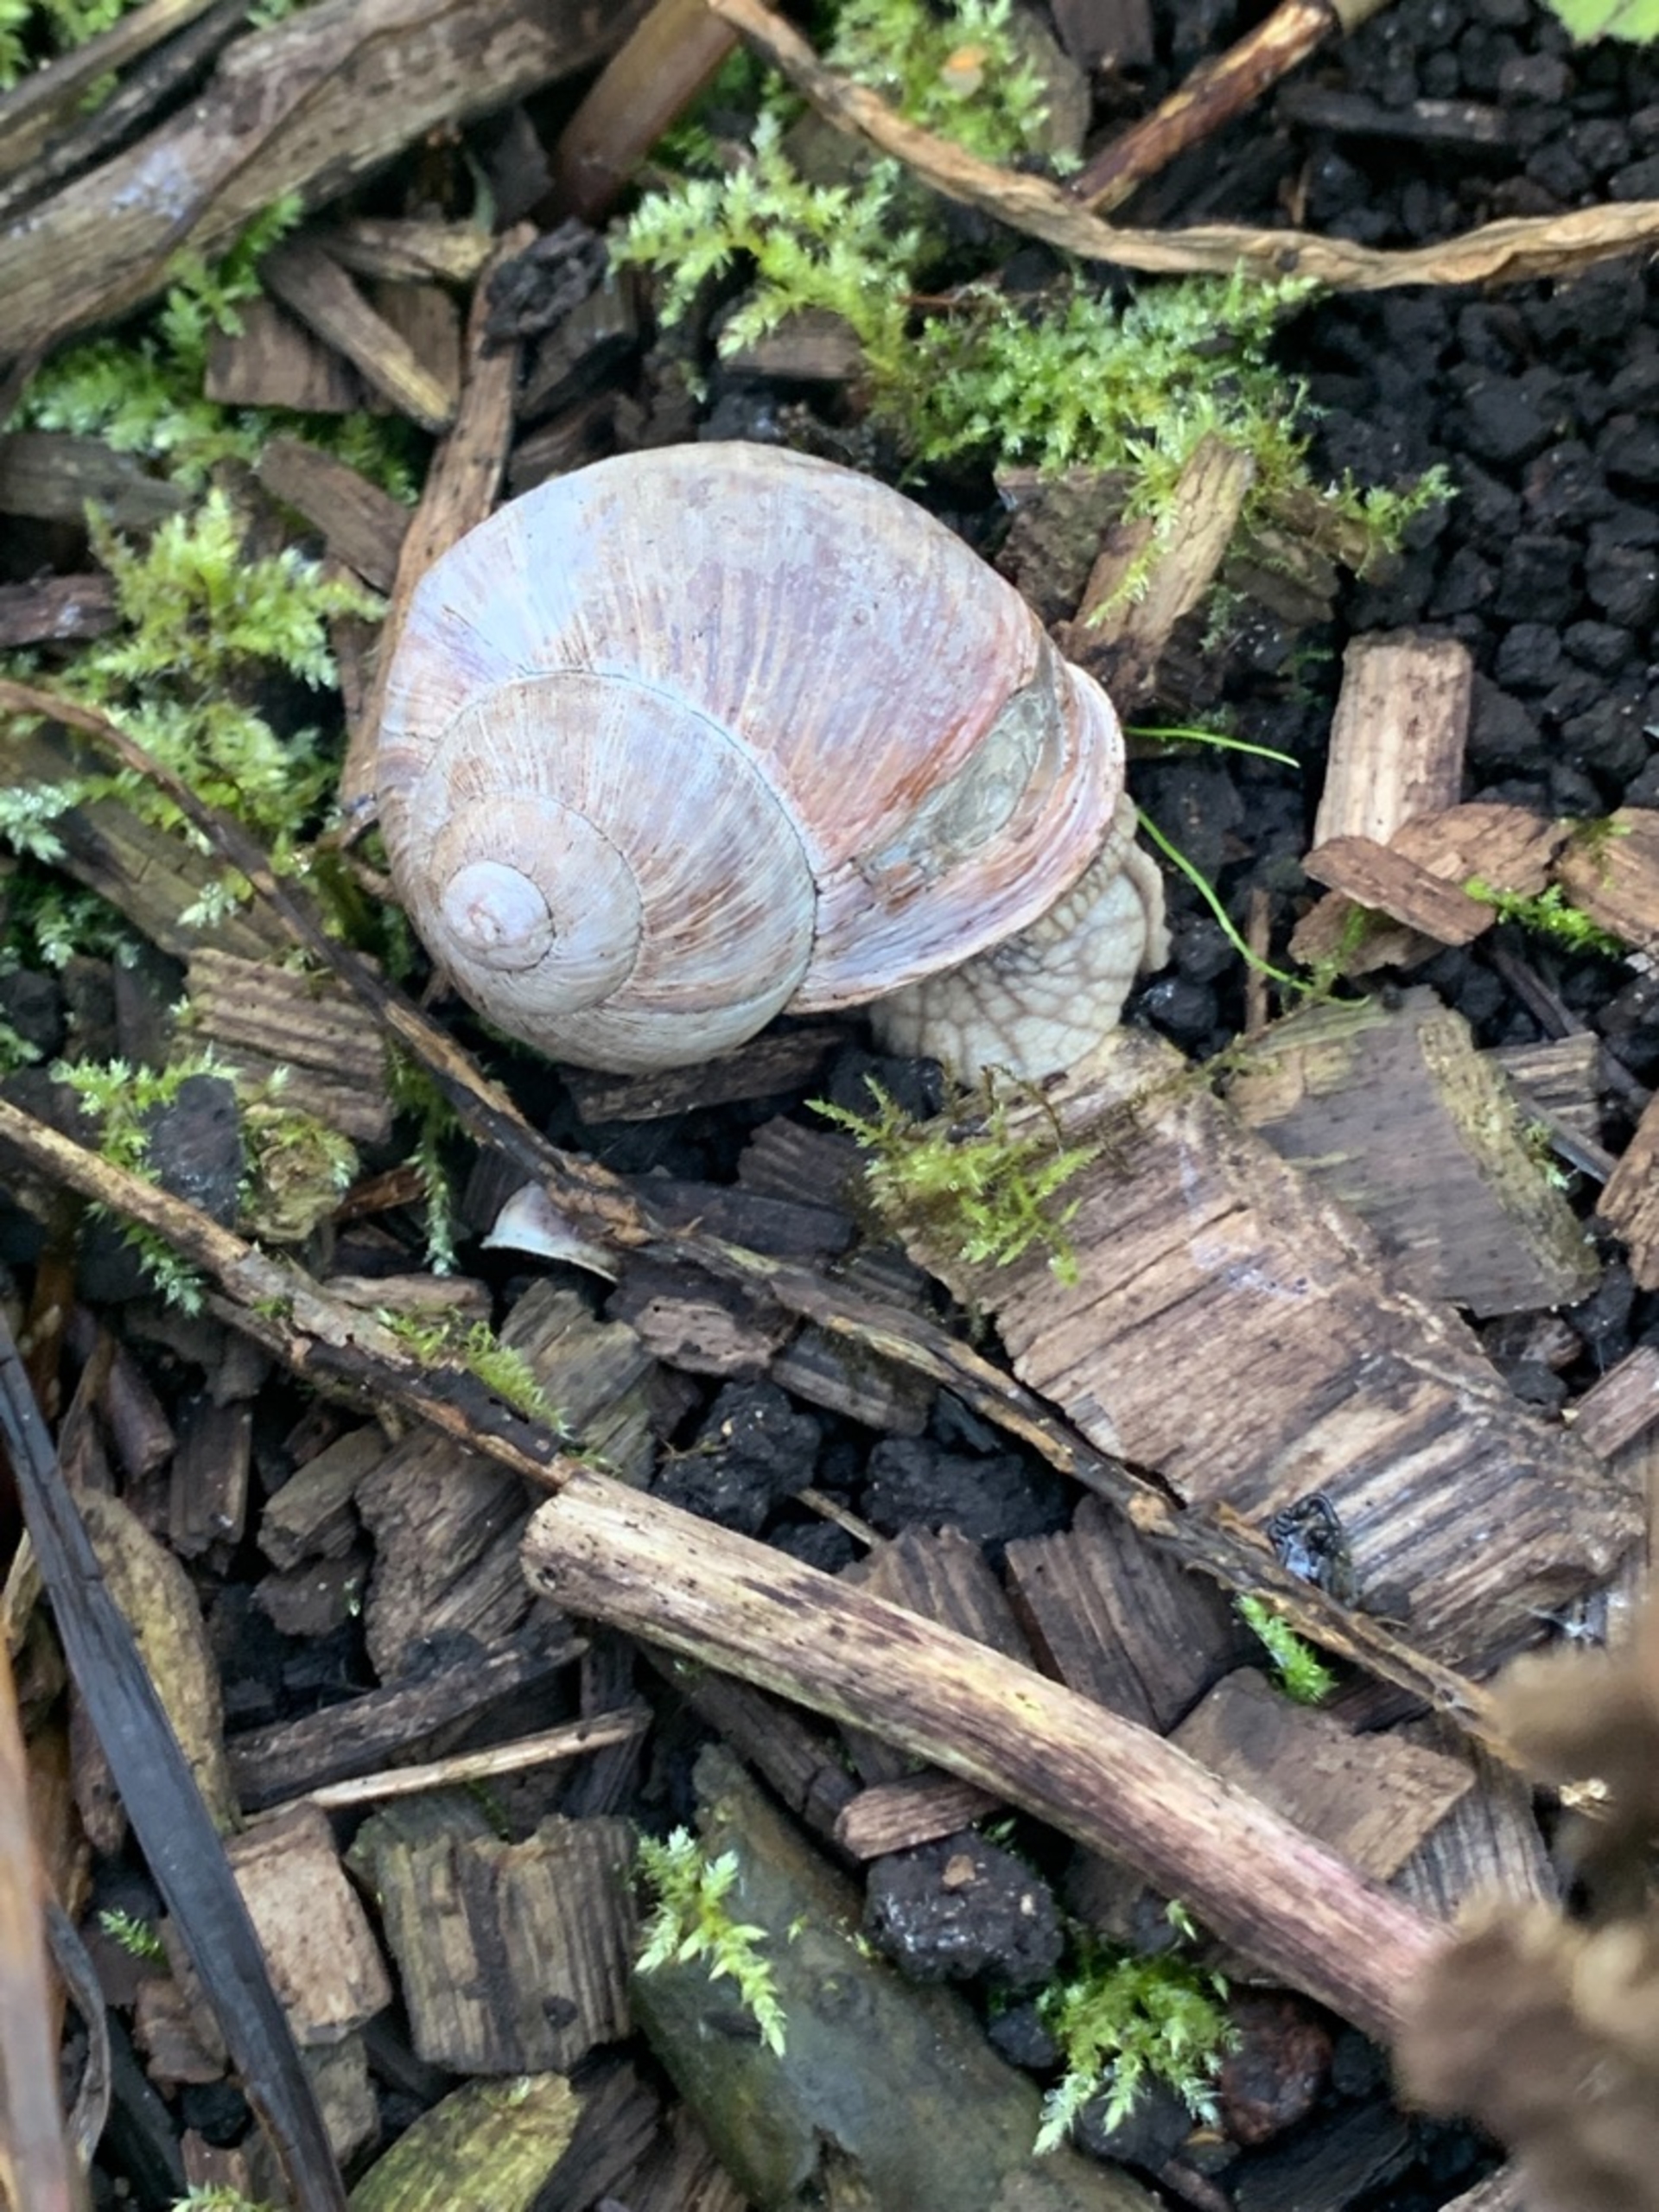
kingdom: Animalia
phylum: Mollusca
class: Gastropoda
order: Stylommatophora
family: Helicidae
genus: Helix
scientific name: Helix pomatia
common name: Vinbjergsnegl
